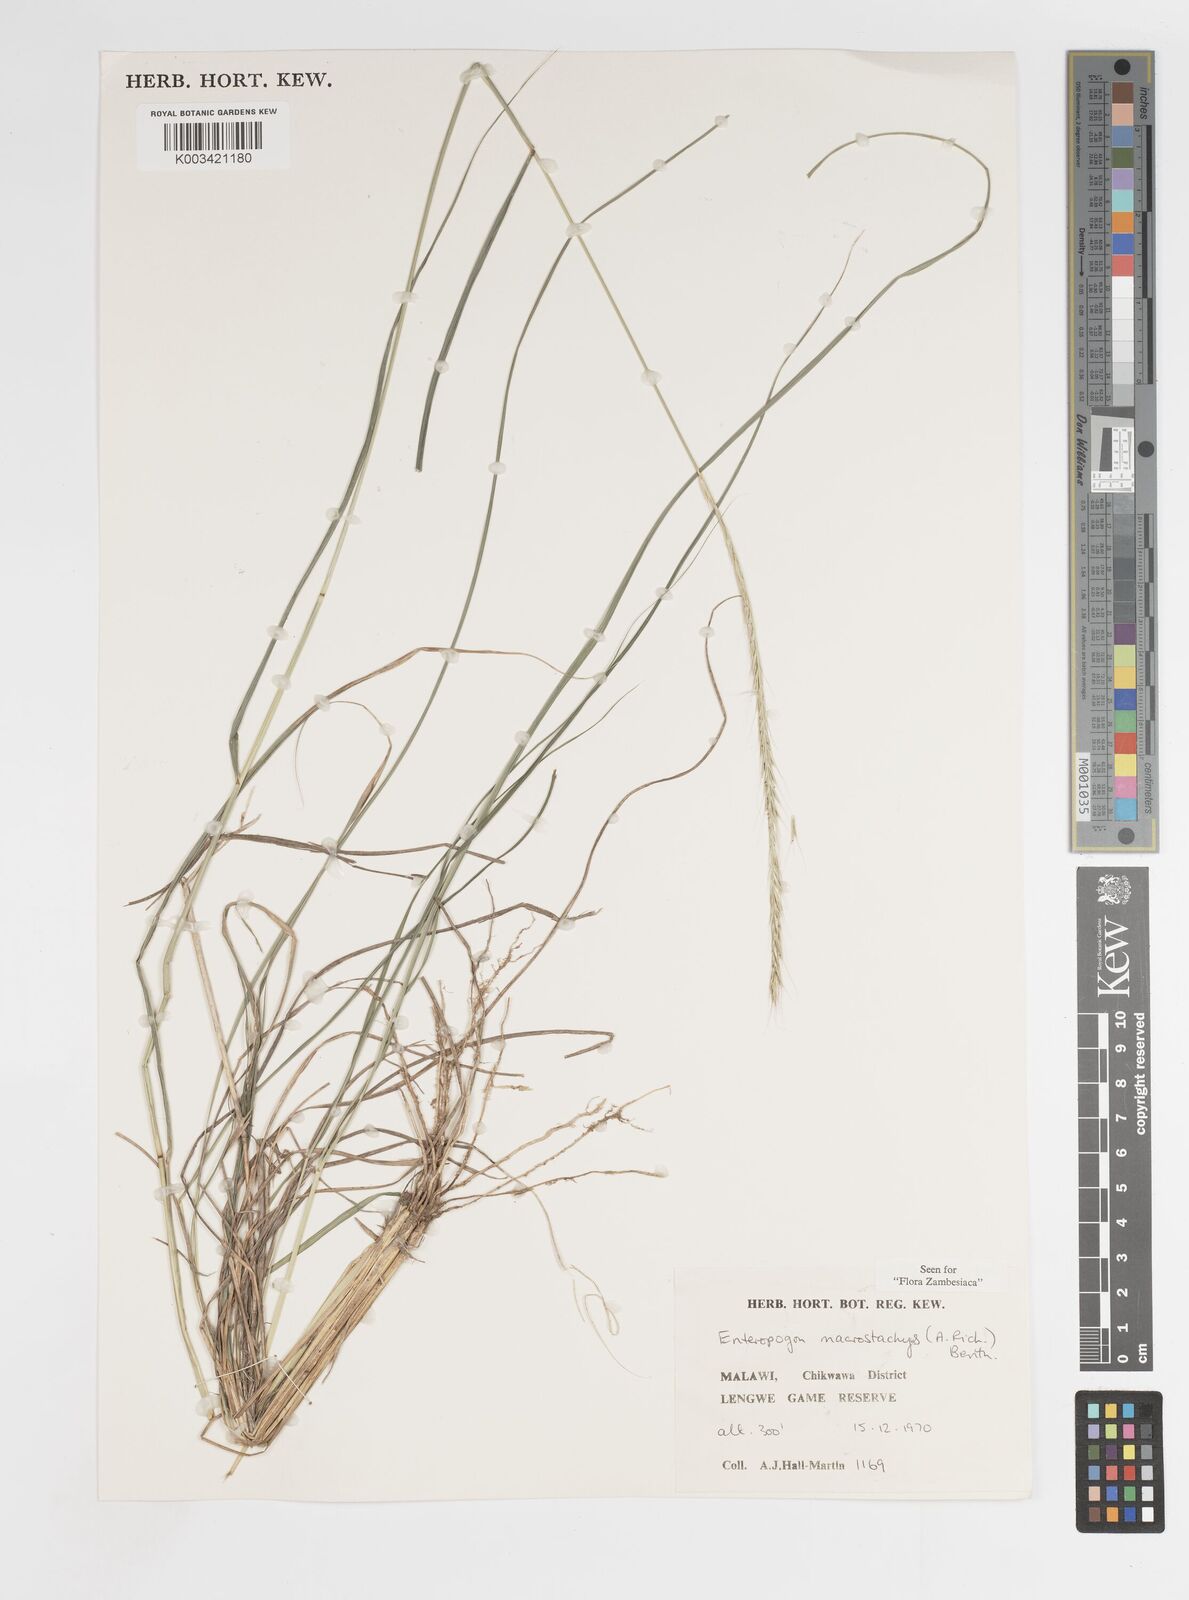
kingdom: Plantae
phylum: Tracheophyta
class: Liliopsida
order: Poales
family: Poaceae
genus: Enteropogon
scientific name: Enteropogon macrostachyus
